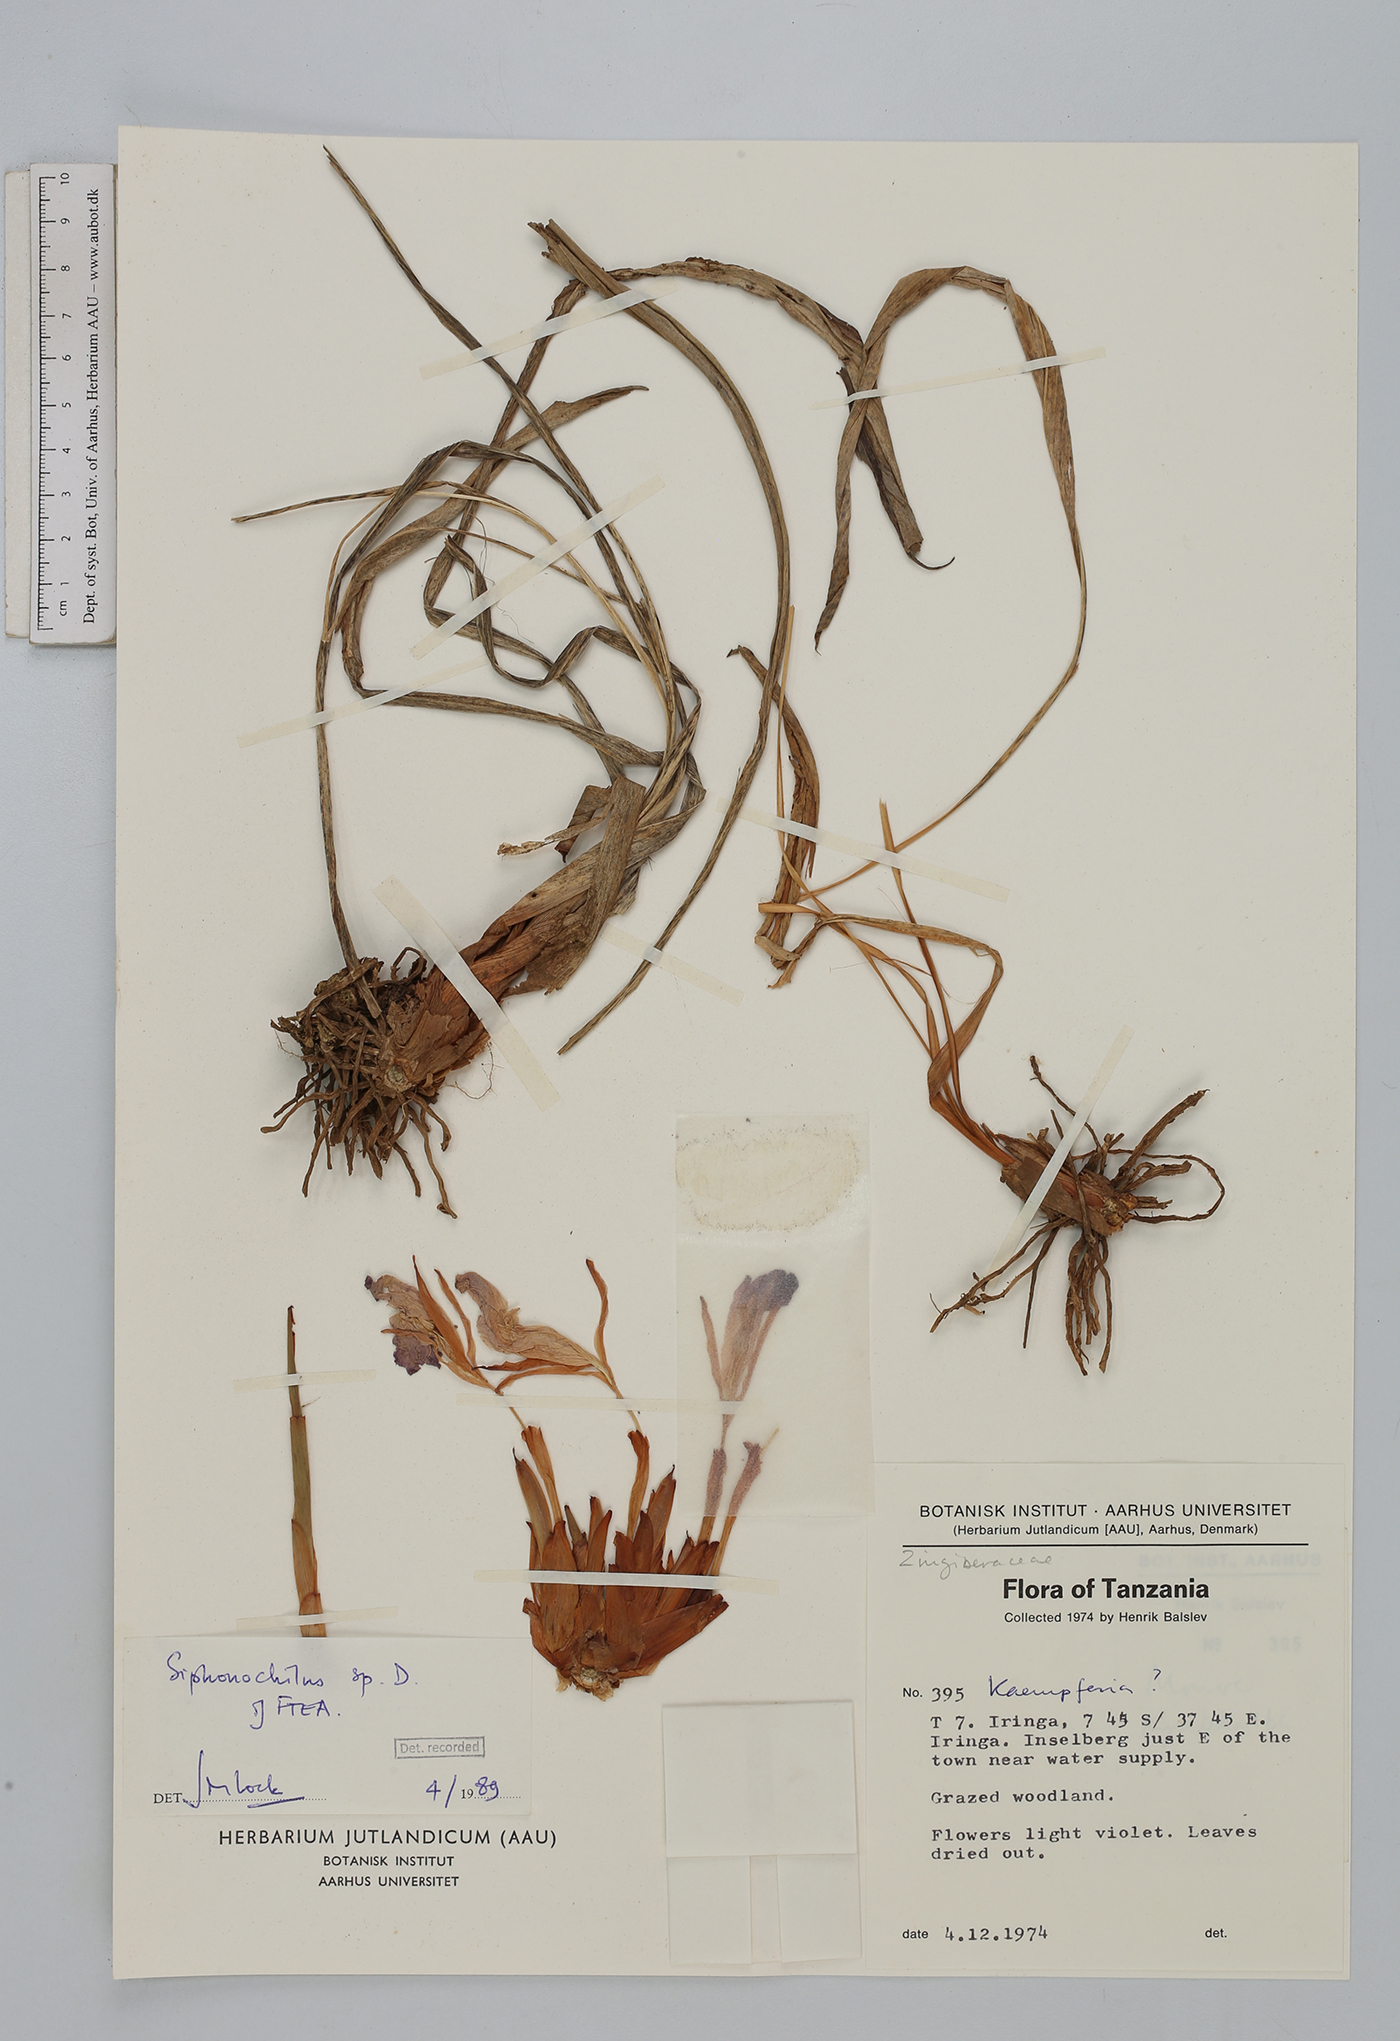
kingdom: Plantae
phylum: Tracheophyta
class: Liliopsida
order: Zingiberales
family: Zingiberaceae
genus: Siphonochilus
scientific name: Siphonochilus
